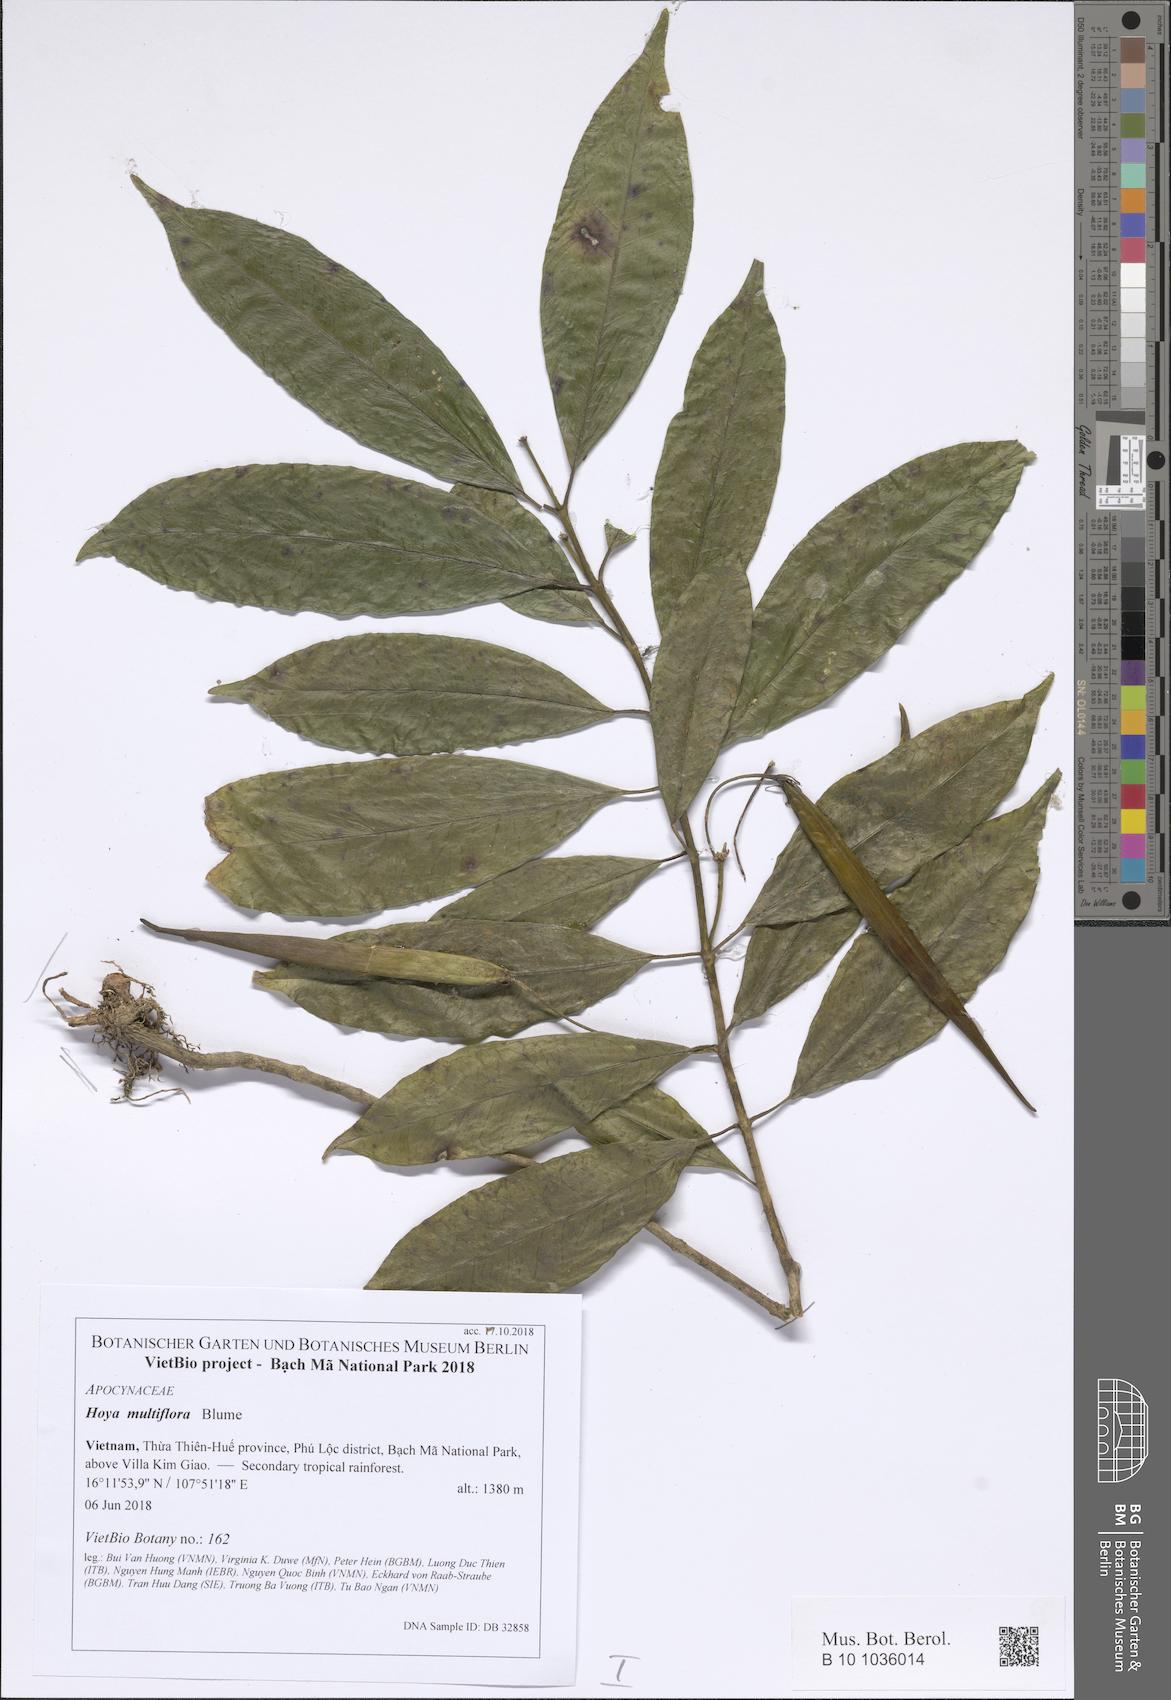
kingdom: Plantae
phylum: Tracheophyta
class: Magnoliopsida
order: Gentianales
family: Apocynaceae
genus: Hoya
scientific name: Hoya multiflora
